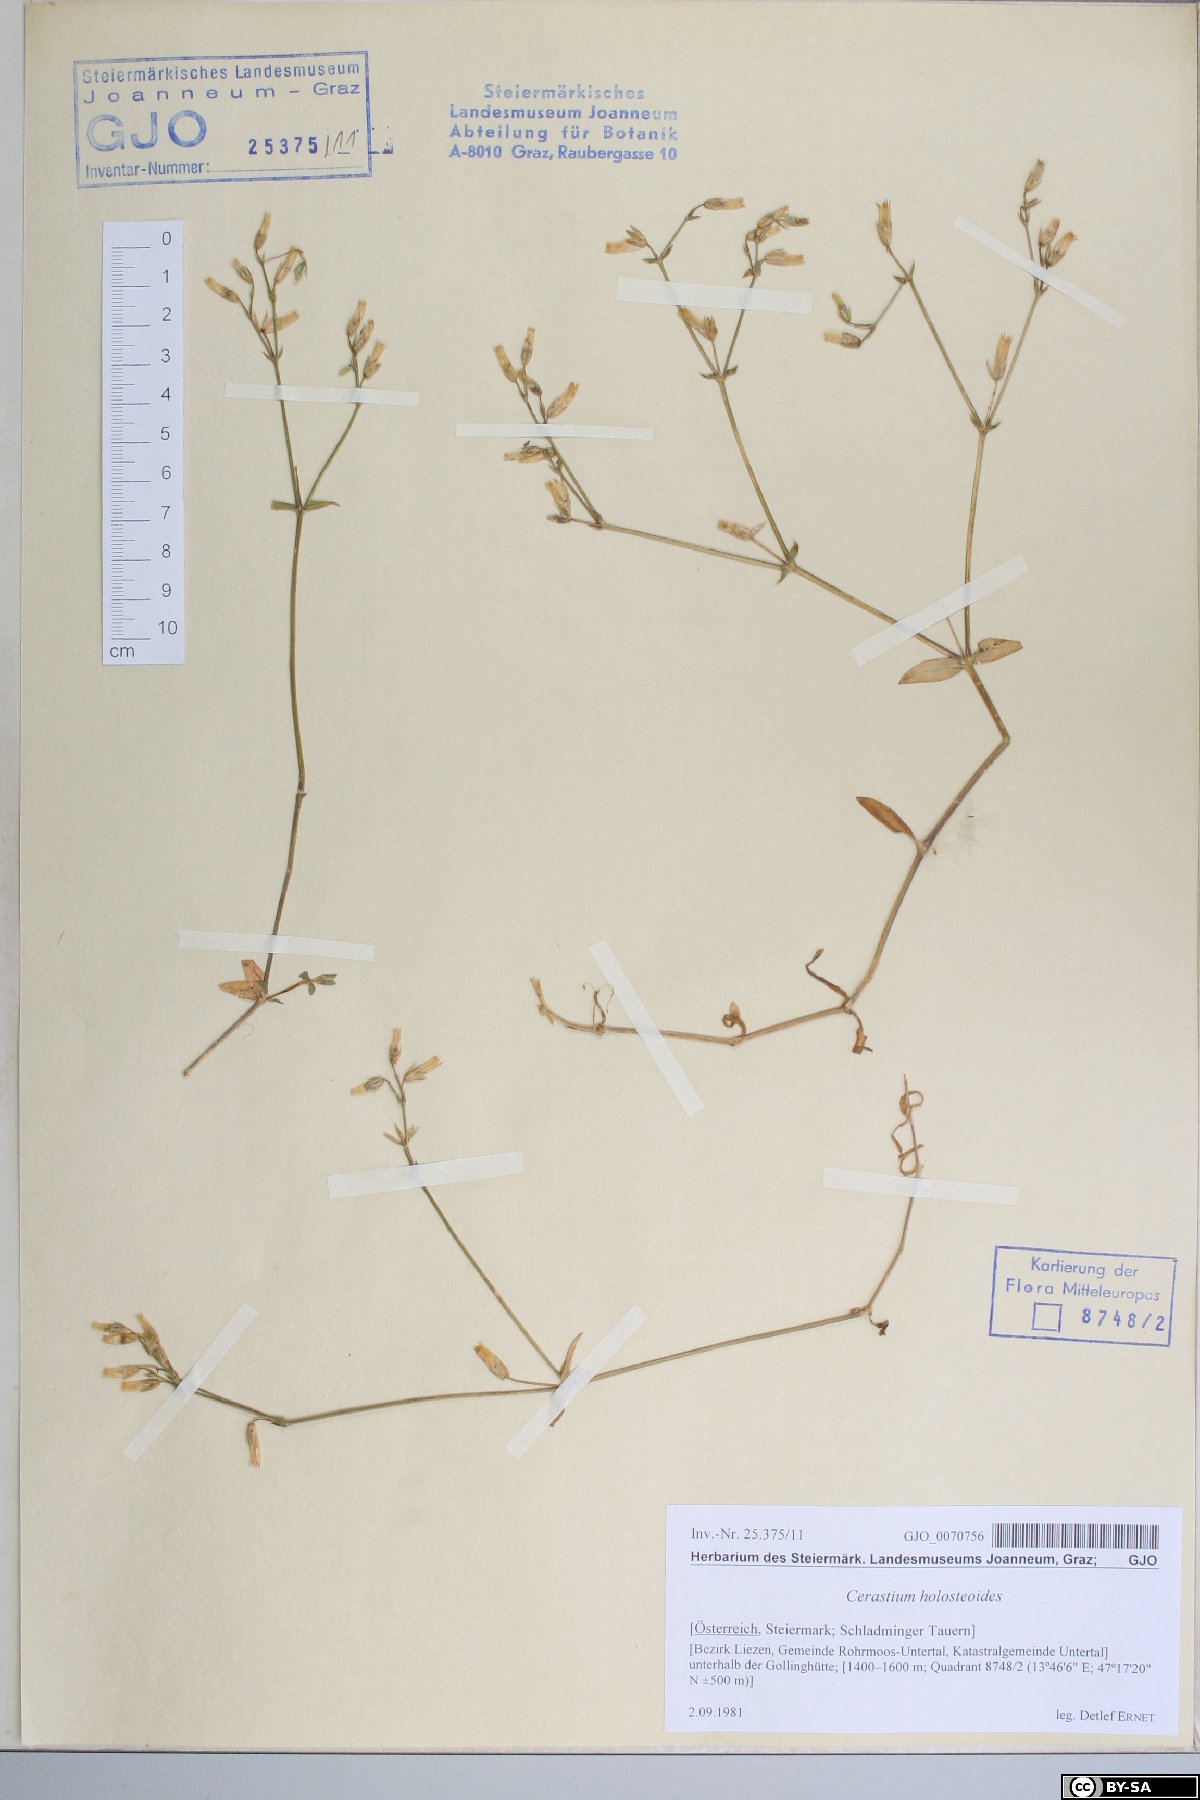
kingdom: Plantae
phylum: Tracheophyta
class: Magnoliopsida
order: Caryophyllales
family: Caryophyllaceae
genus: Cerastium
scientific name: Cerastium holosteoides
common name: Big chickweed
